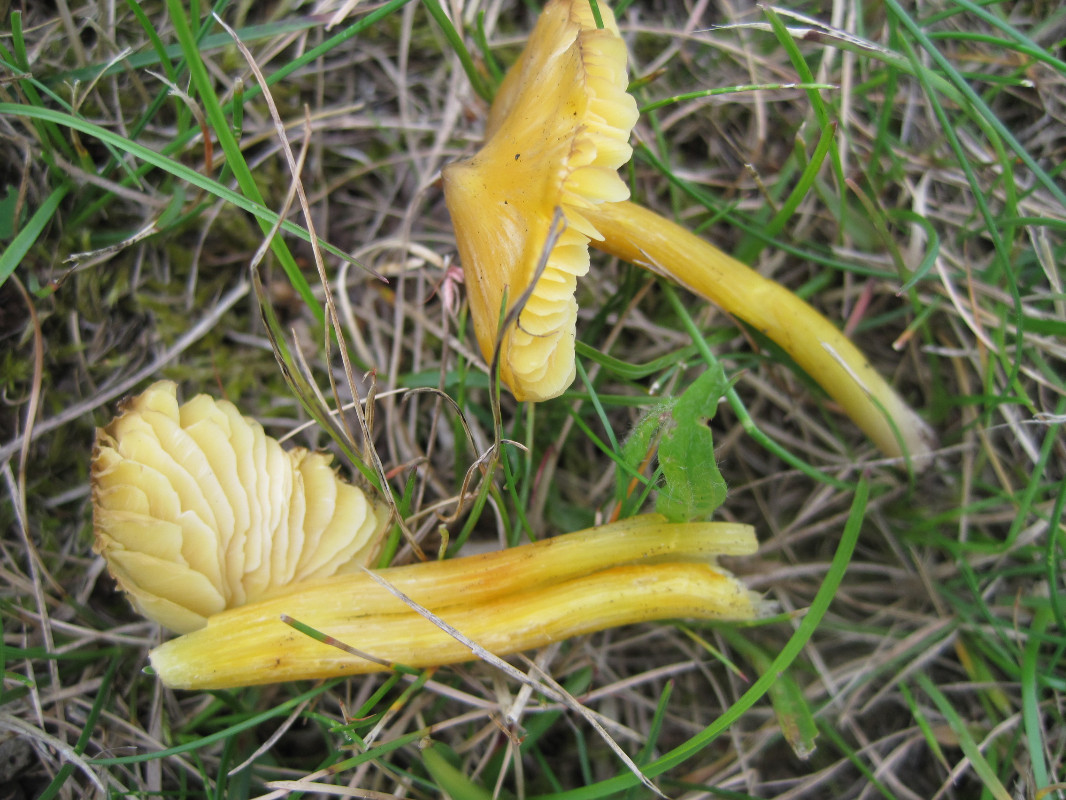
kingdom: Fungi
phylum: Basidiomycota
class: Agaricomycetes
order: Agaricales
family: Hygrophoraceae
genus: Hygrocybe
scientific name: Hygrocybe acutoconica
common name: spidspuklet vokshat
